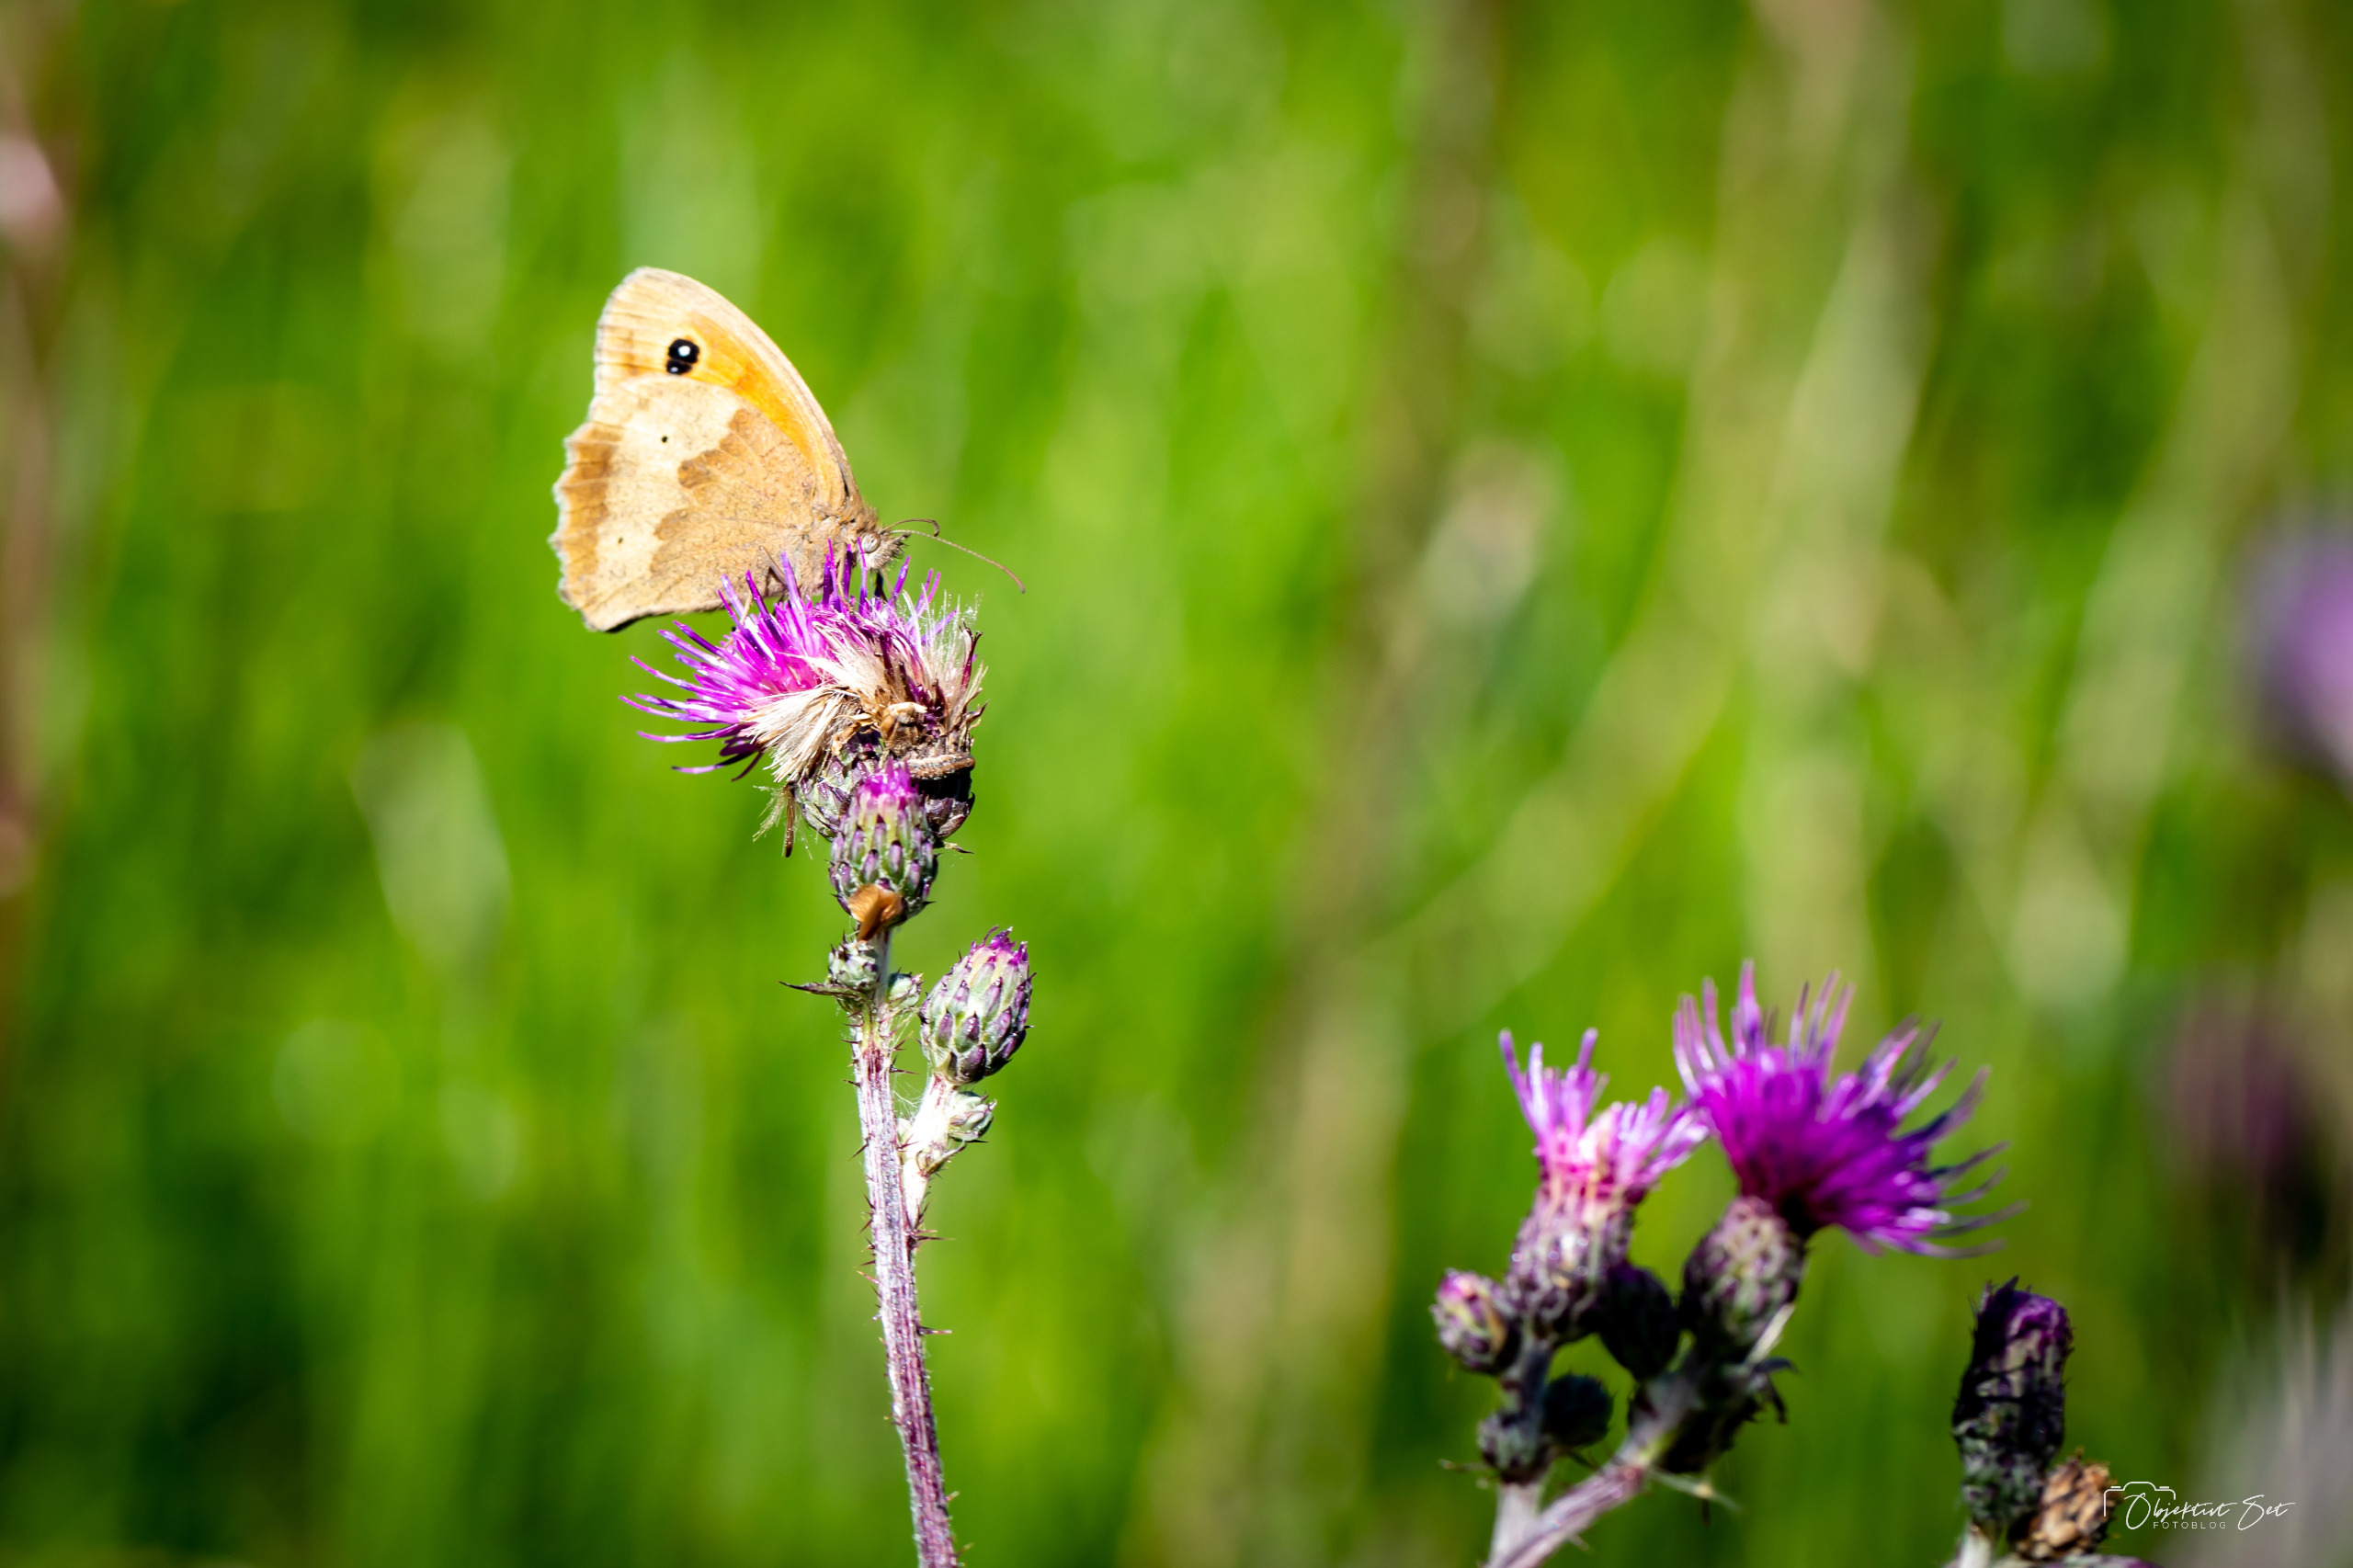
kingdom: Animalia
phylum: Arthropoda
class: Insecta
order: Lepidoptera
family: Nymphalidae
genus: Maniola
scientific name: Maniola jurtina
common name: Græsrandøje
